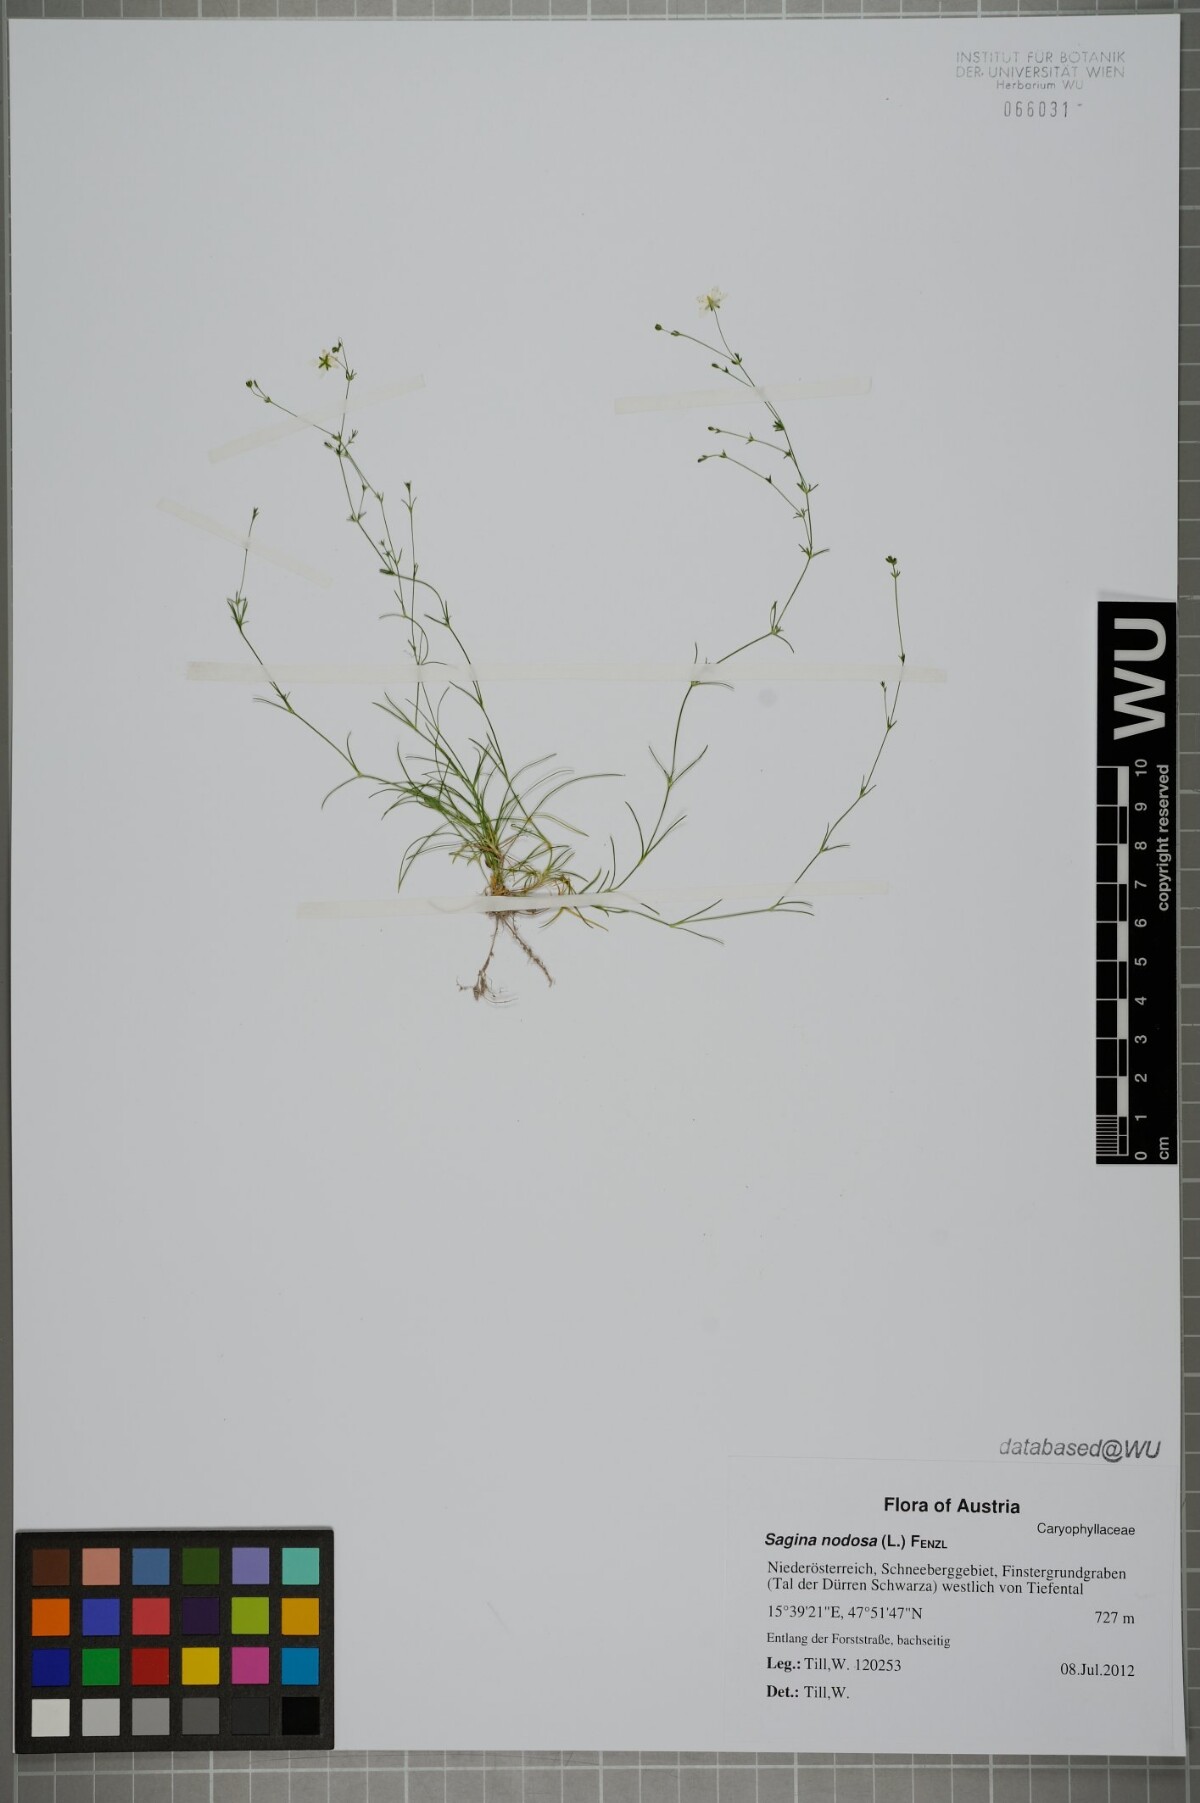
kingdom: Plantae
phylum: Tracheophyta
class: Magnoliopsida
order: Caryophyllales
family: Caryophyllaceae
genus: Sagina
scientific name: Sagina nodosa
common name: Knotted pearlwort
